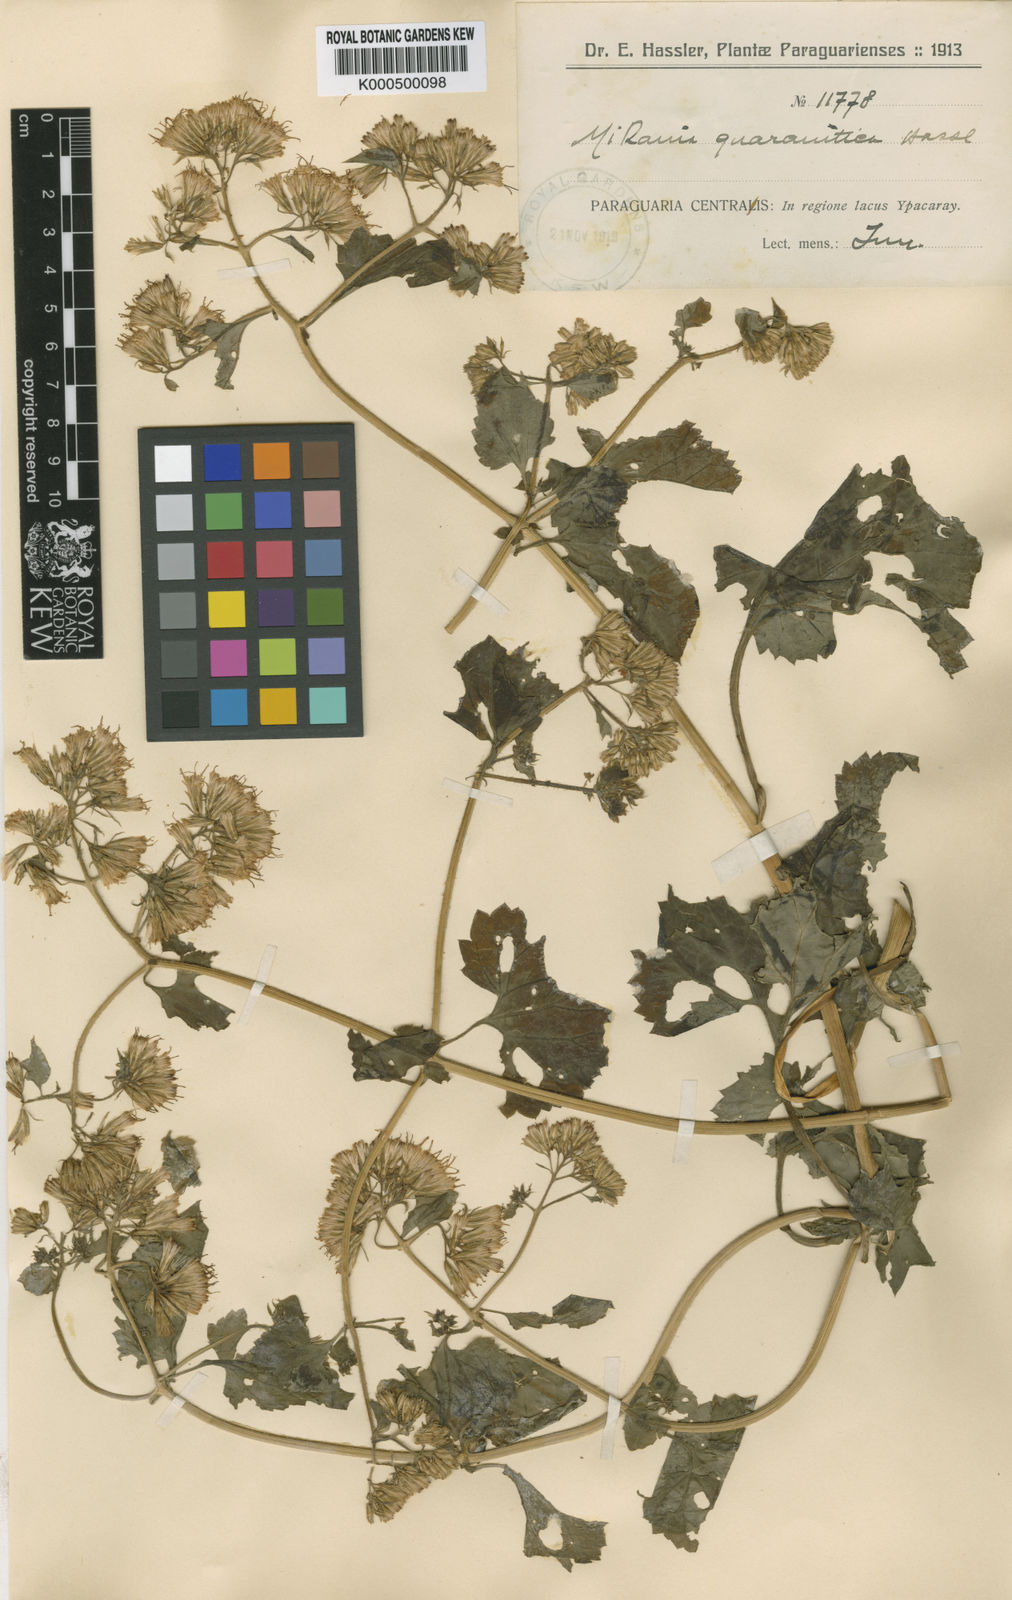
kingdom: Plantae
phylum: Tracheophyta
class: Magnoliopsida
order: Asterales
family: Asteraceae
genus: Mikania
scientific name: Mikania guaranitica
